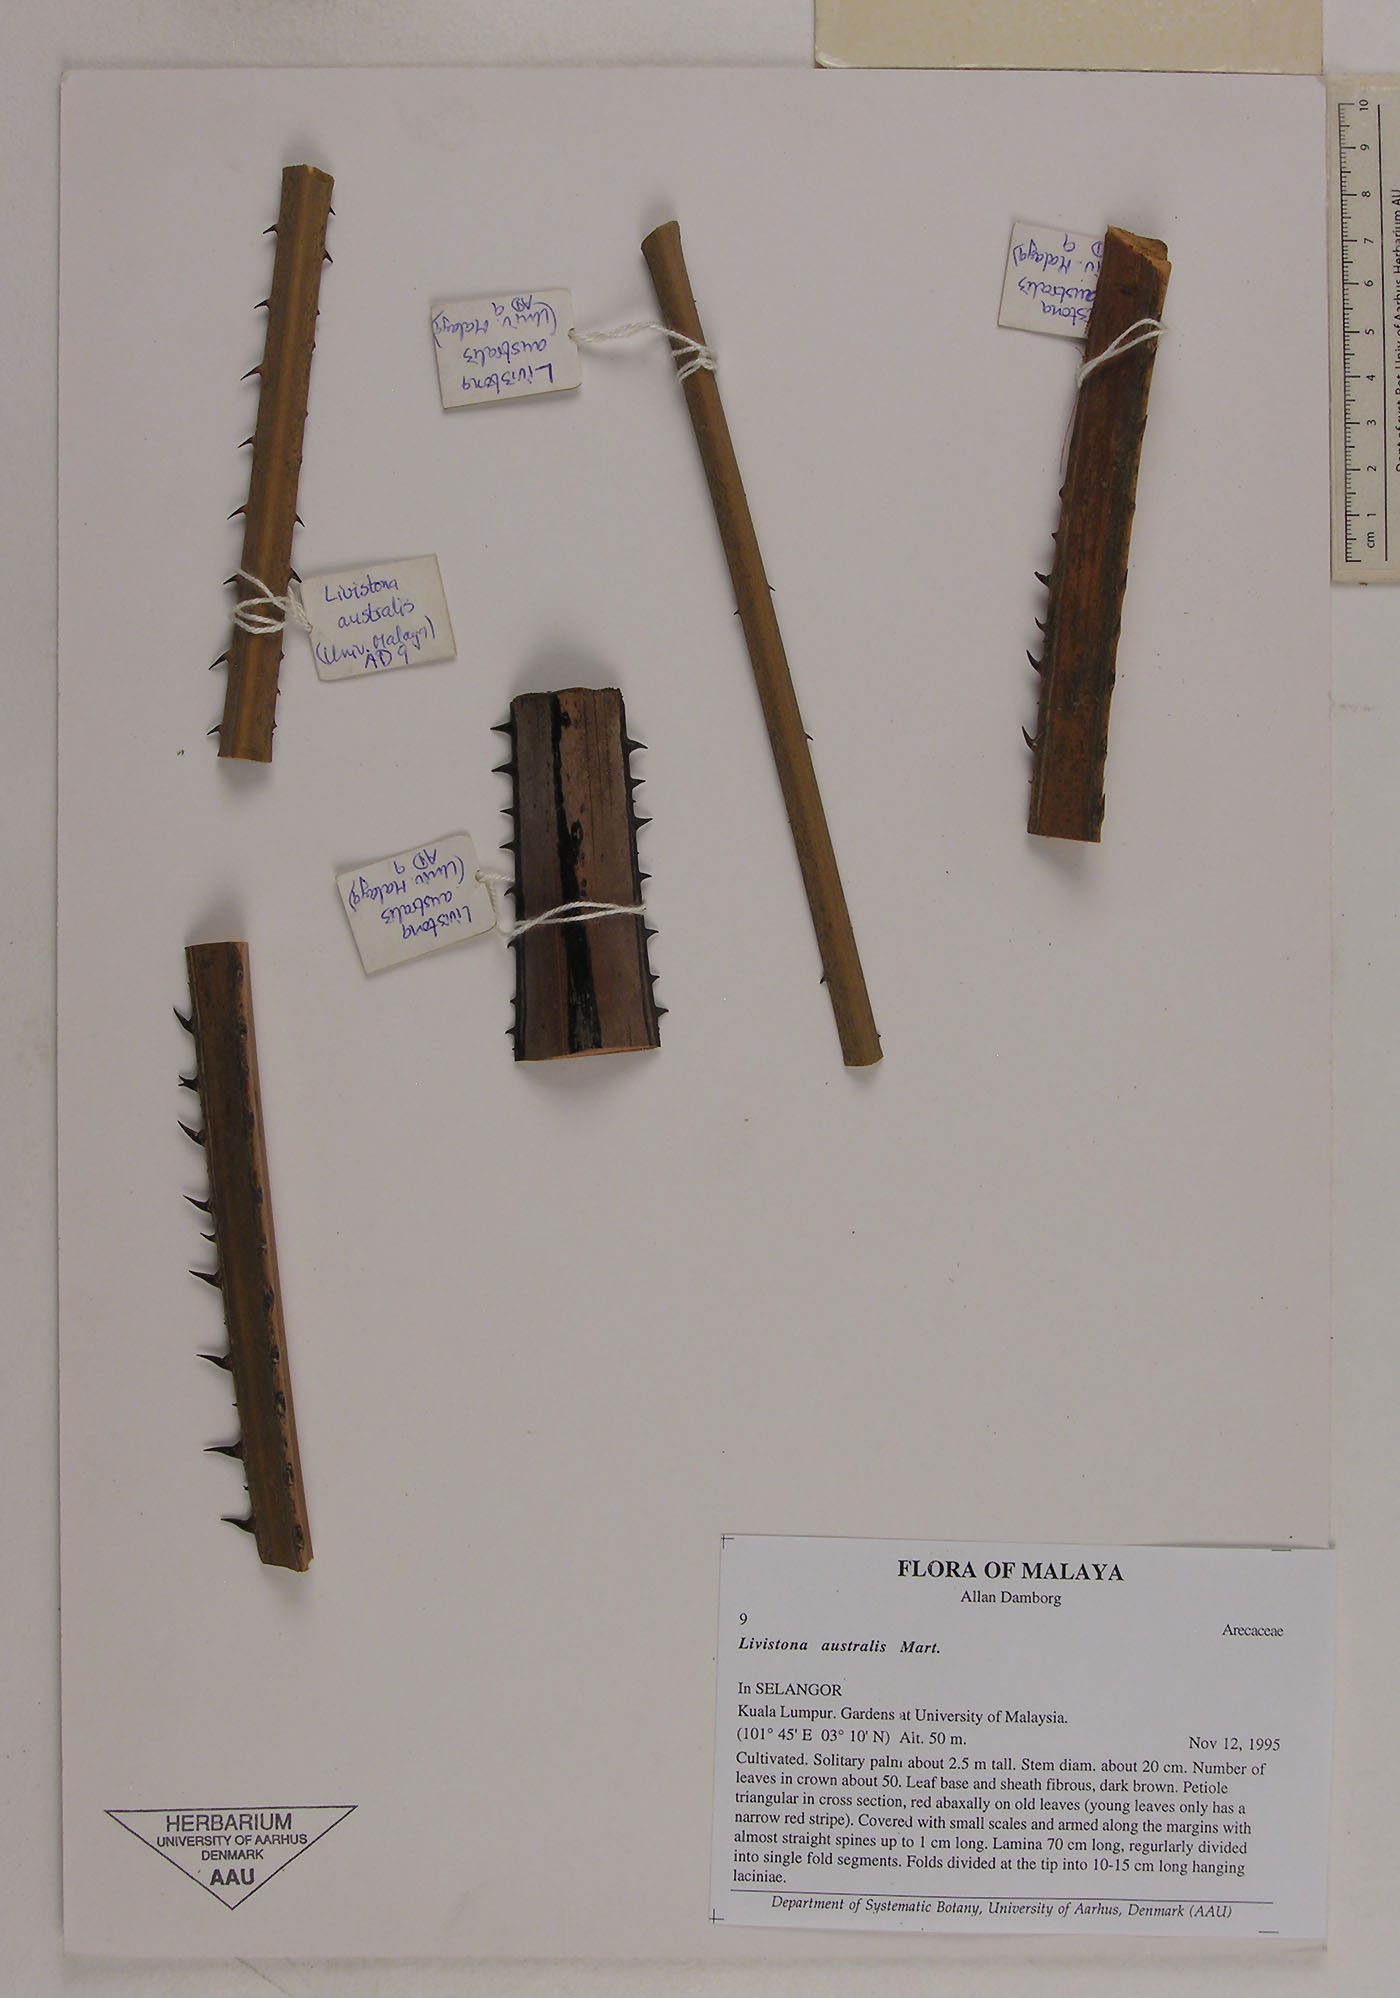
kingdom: Plantae
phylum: Tracheophyta
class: Liliopsida
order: Arecales
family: Arecaceae
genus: Livistona
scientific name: Livistona australis
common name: Cabbage fan palm
